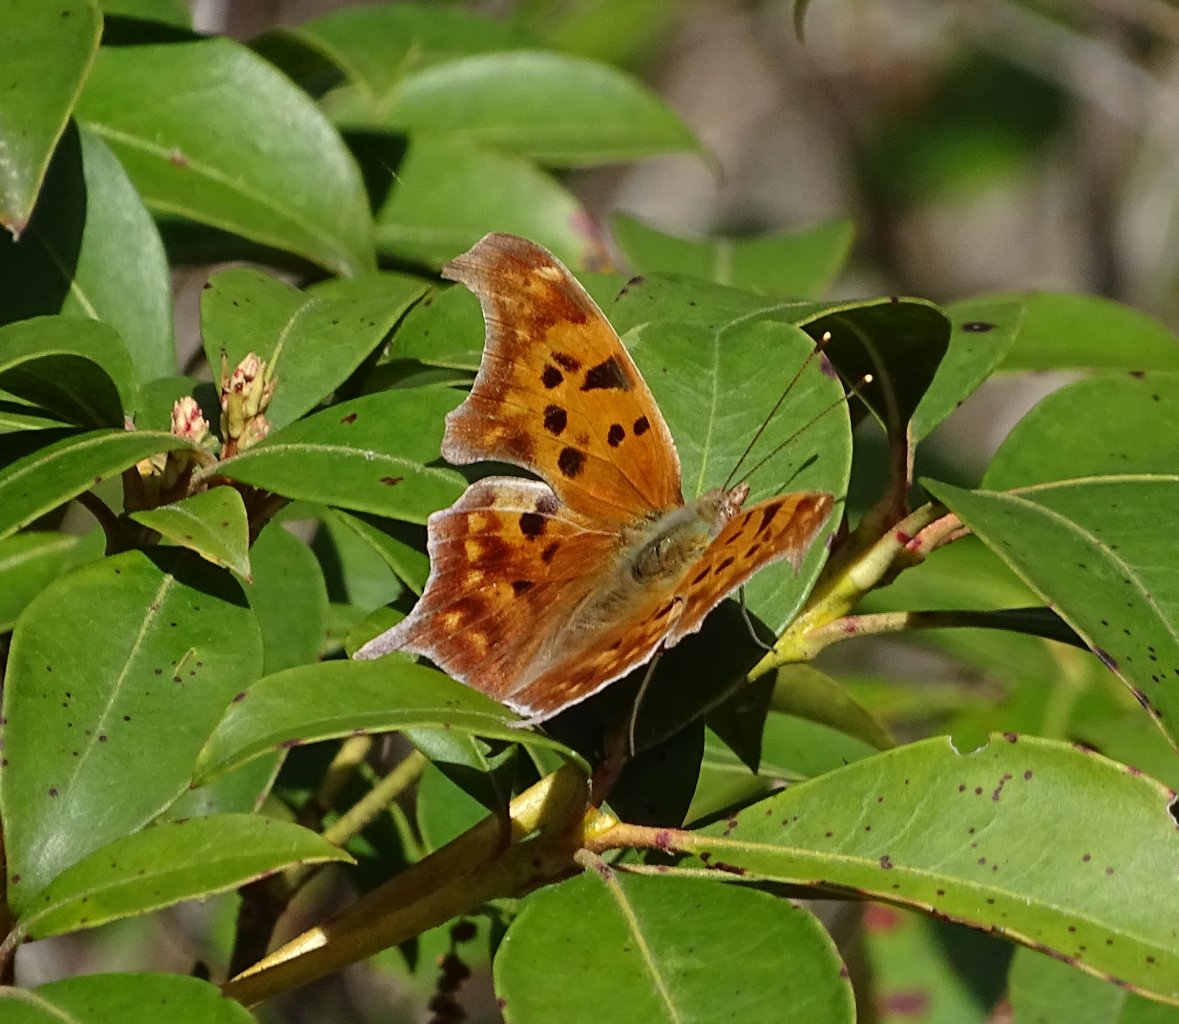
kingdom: Animalia
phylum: Arthropoda
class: Insecta
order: Lepidoptera
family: Nymphalidae
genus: Polygonia
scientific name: Polygonia interrogationis
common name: Question Mark
